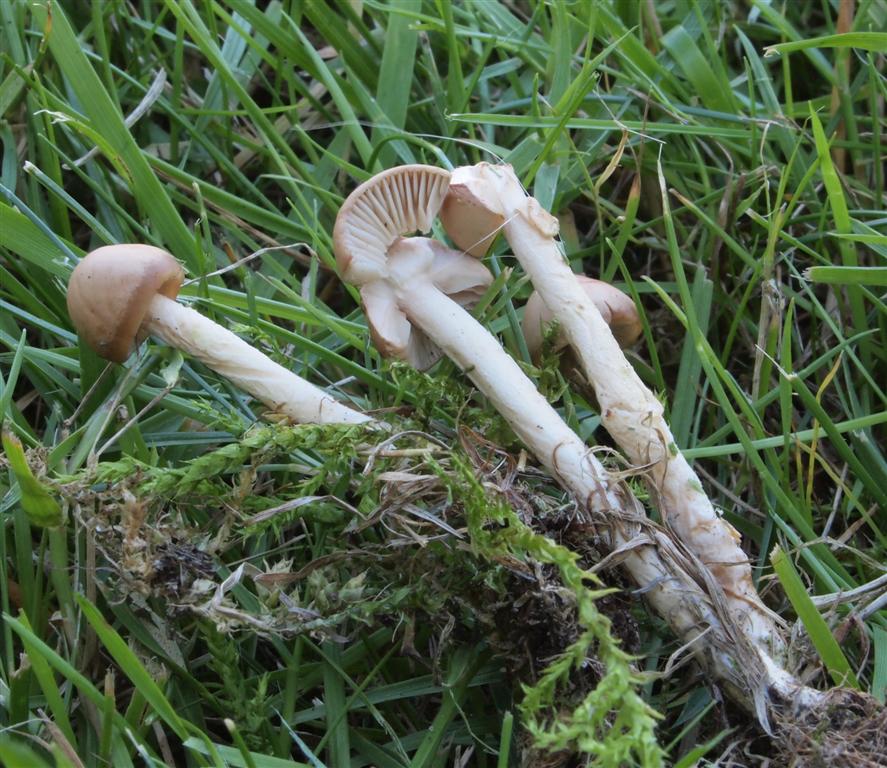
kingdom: Fungi
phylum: Basidiomycota
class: Agaricomycetes
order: Agaricales
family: Marasmiaceae
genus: Marasmius
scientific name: Marasmius oreades
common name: elledans-bruskhat
